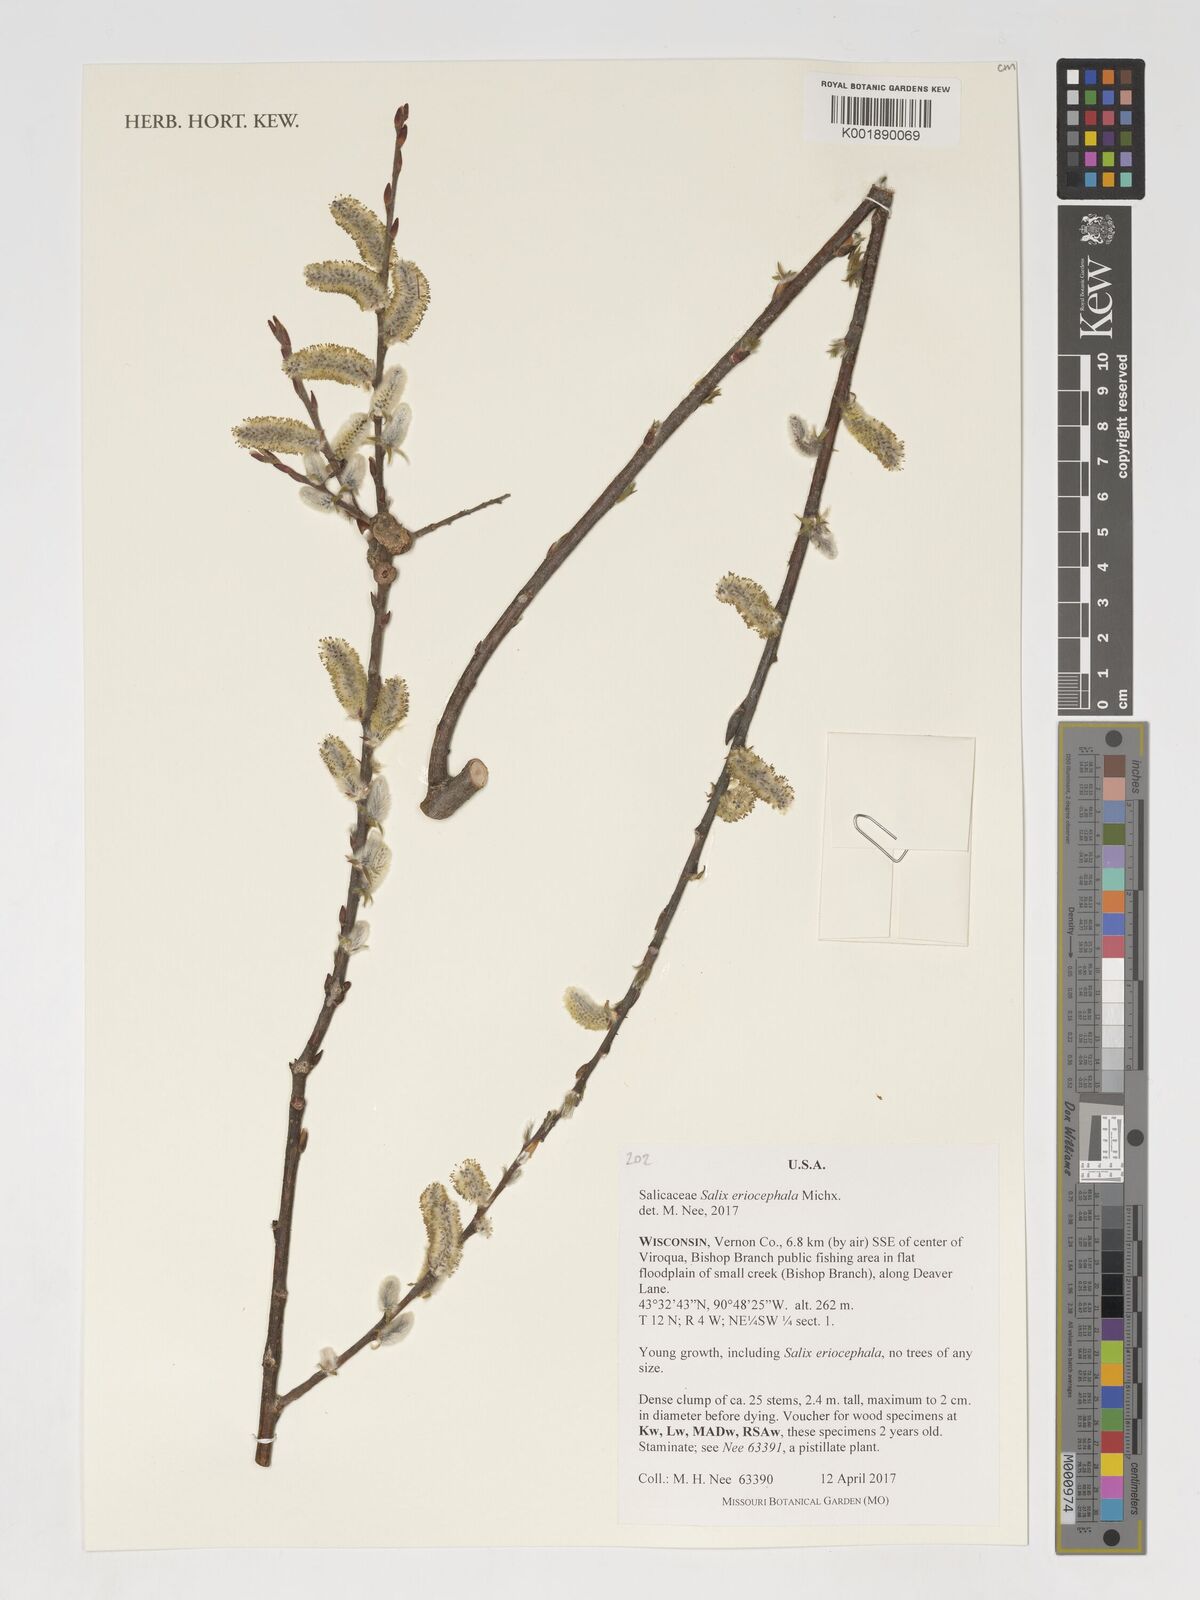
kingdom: Plantae
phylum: Tracheophyta
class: Magnoliopsida
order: Malpighiales
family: Salicaceae
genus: Salix
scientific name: Salix eriocephala
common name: Heart-leaved willow
